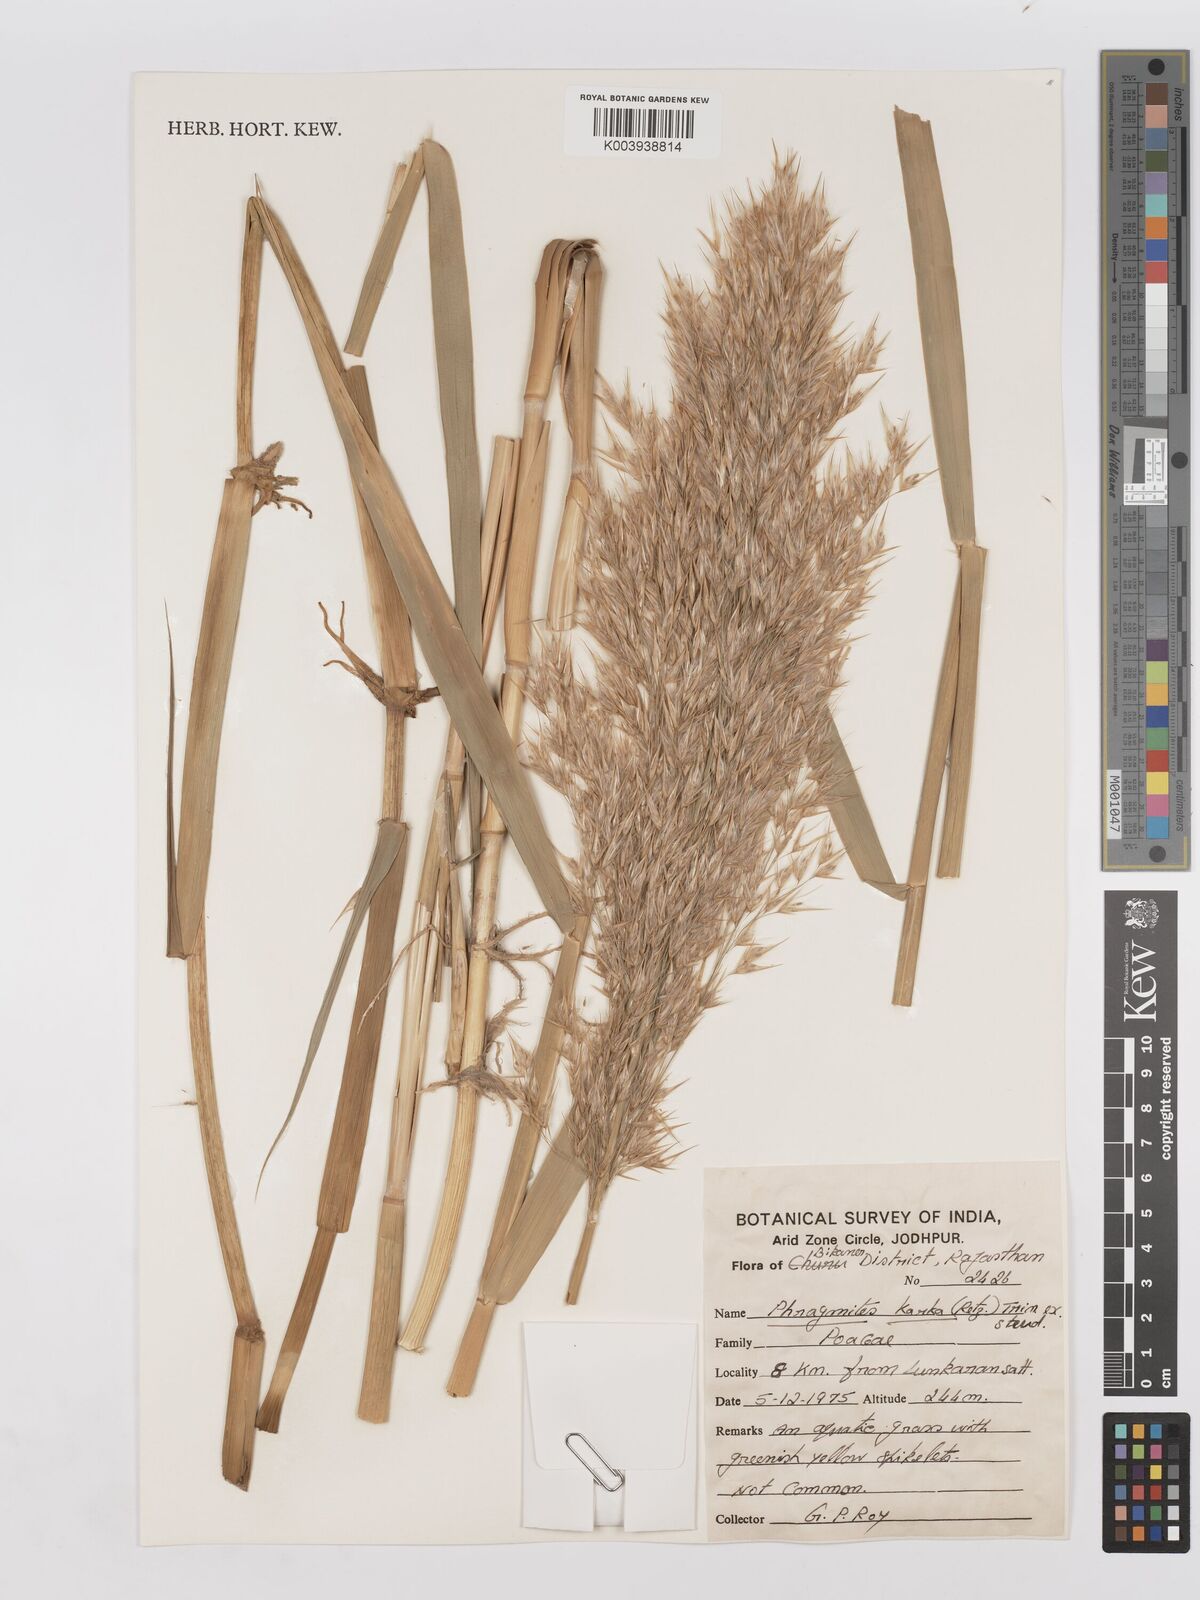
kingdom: Plantae
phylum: Tracheophyta
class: Liliopsida
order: Poales
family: Poaceae
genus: Phragmites
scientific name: Phragmites karka
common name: Tropical reed
